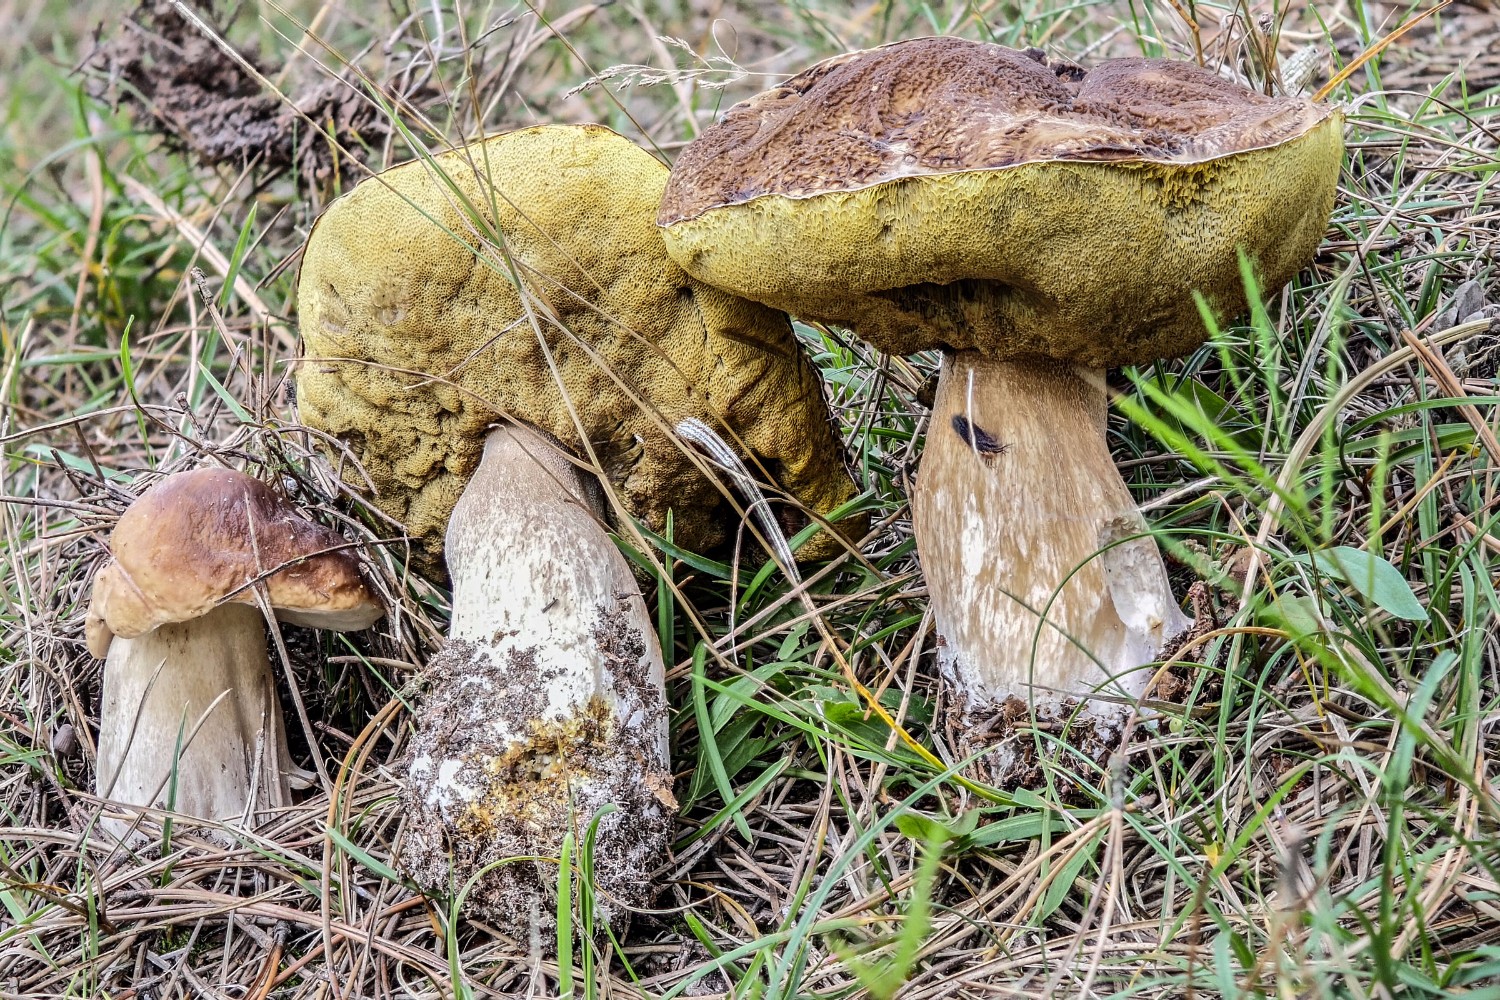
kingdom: Fungi
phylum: Basidiomycota
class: Agaricomycetes
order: Boletales
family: Boletaceae
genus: Boletus
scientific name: Boletus edulis
